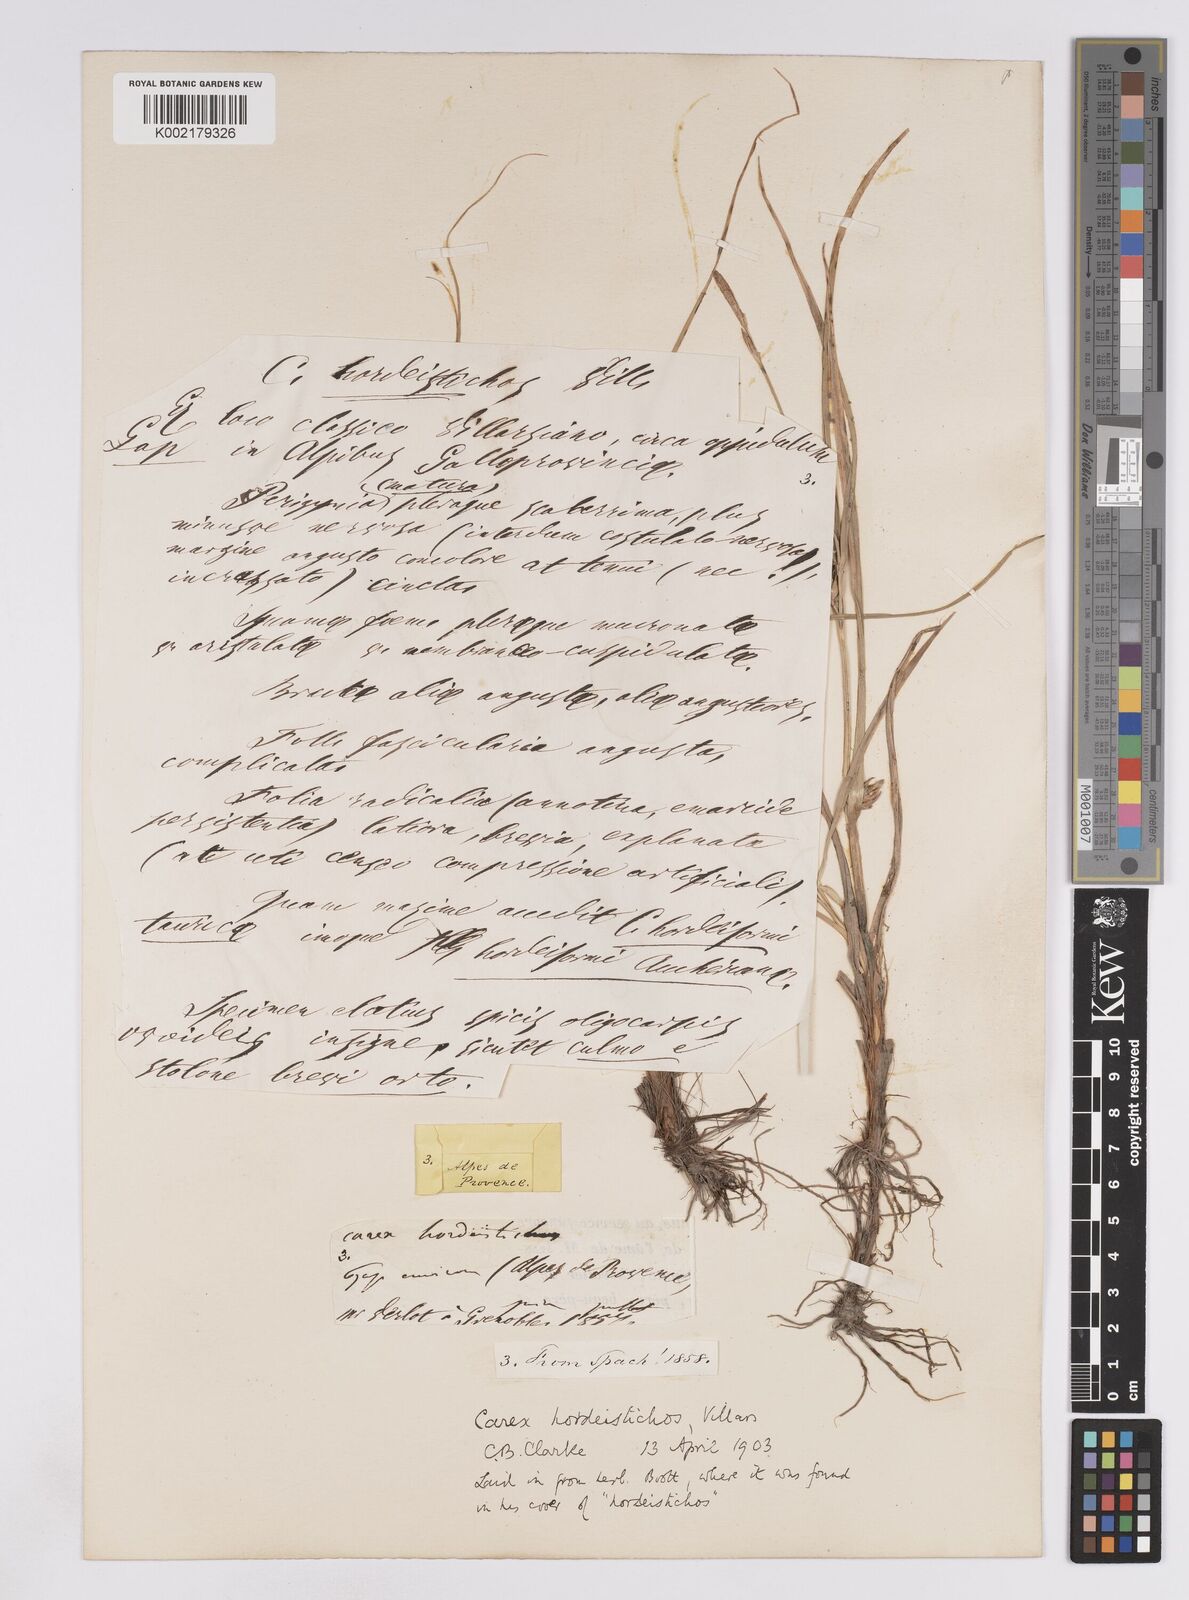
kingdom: Plantae
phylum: Tracheophyta
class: Liliopsida
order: Poales
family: Cyperaceae
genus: Carex
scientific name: Carex hordeistichos
